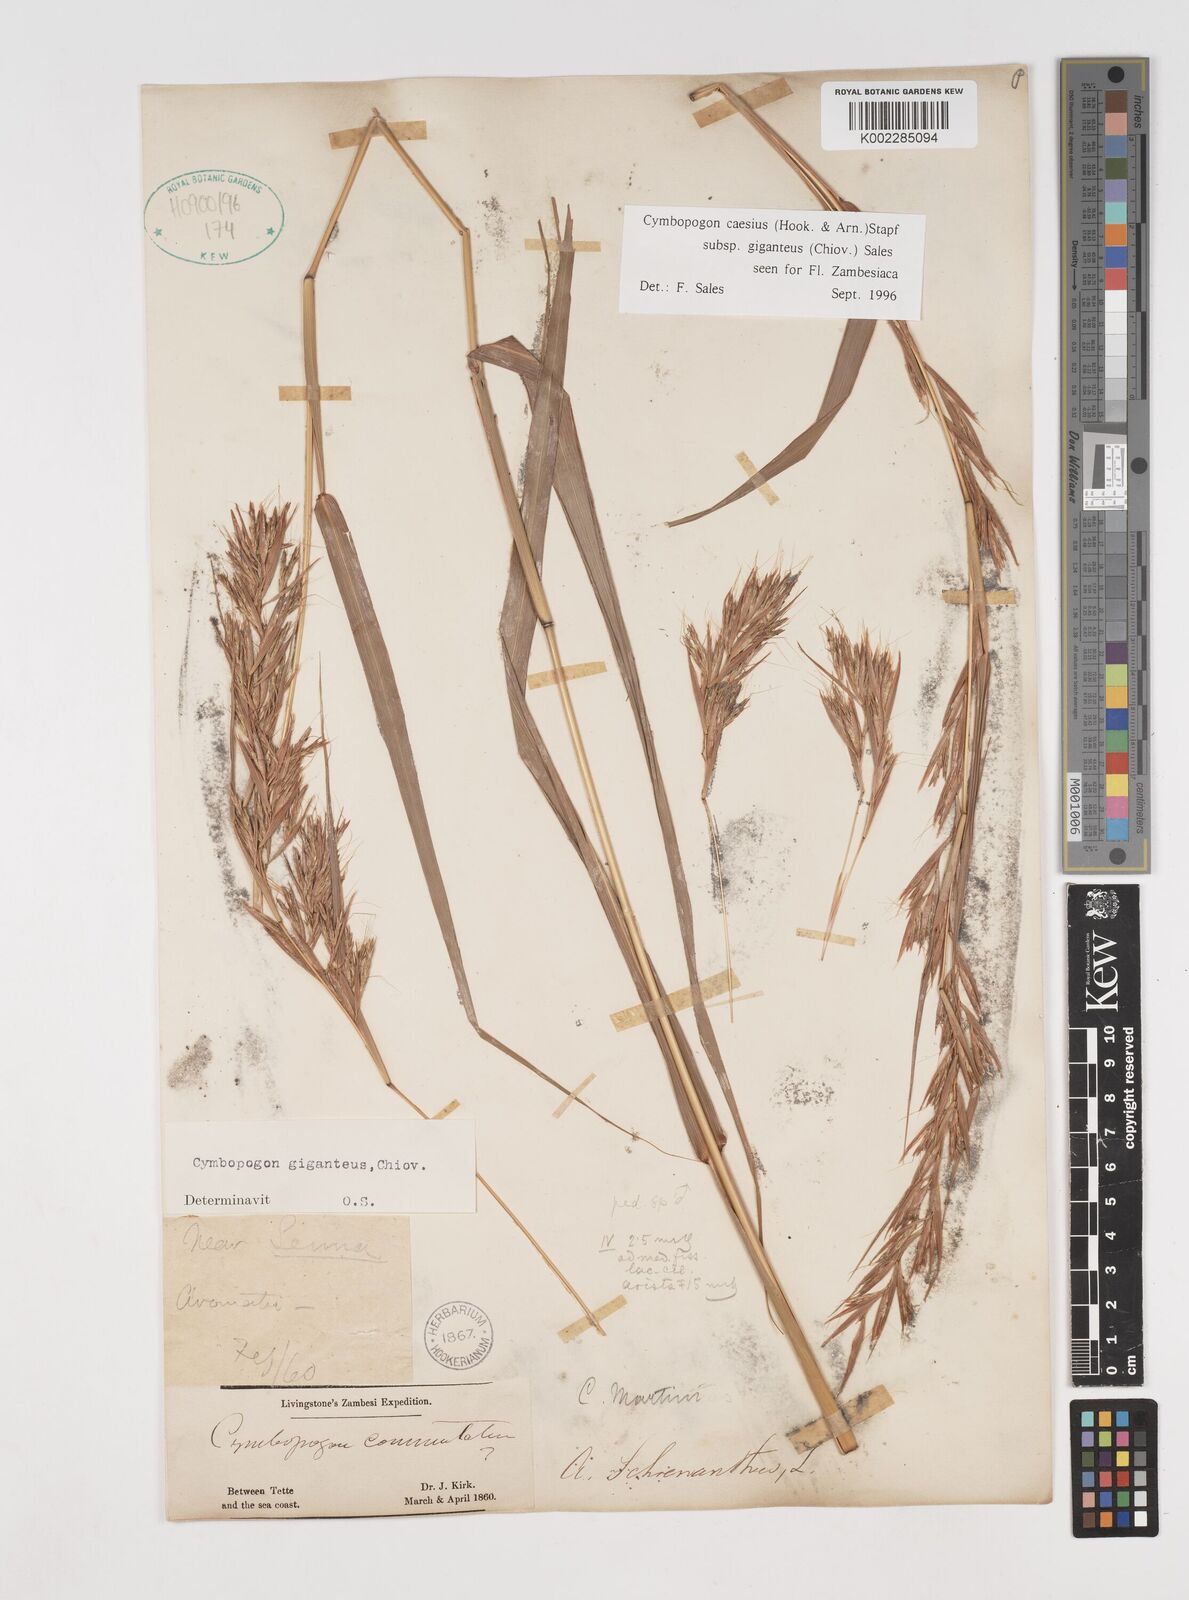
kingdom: Plantae
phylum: Tracheophyta
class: Liliopsida
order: Poales
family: Poaceae
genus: Cymbopogon
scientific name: Cymbopogon giganteus
